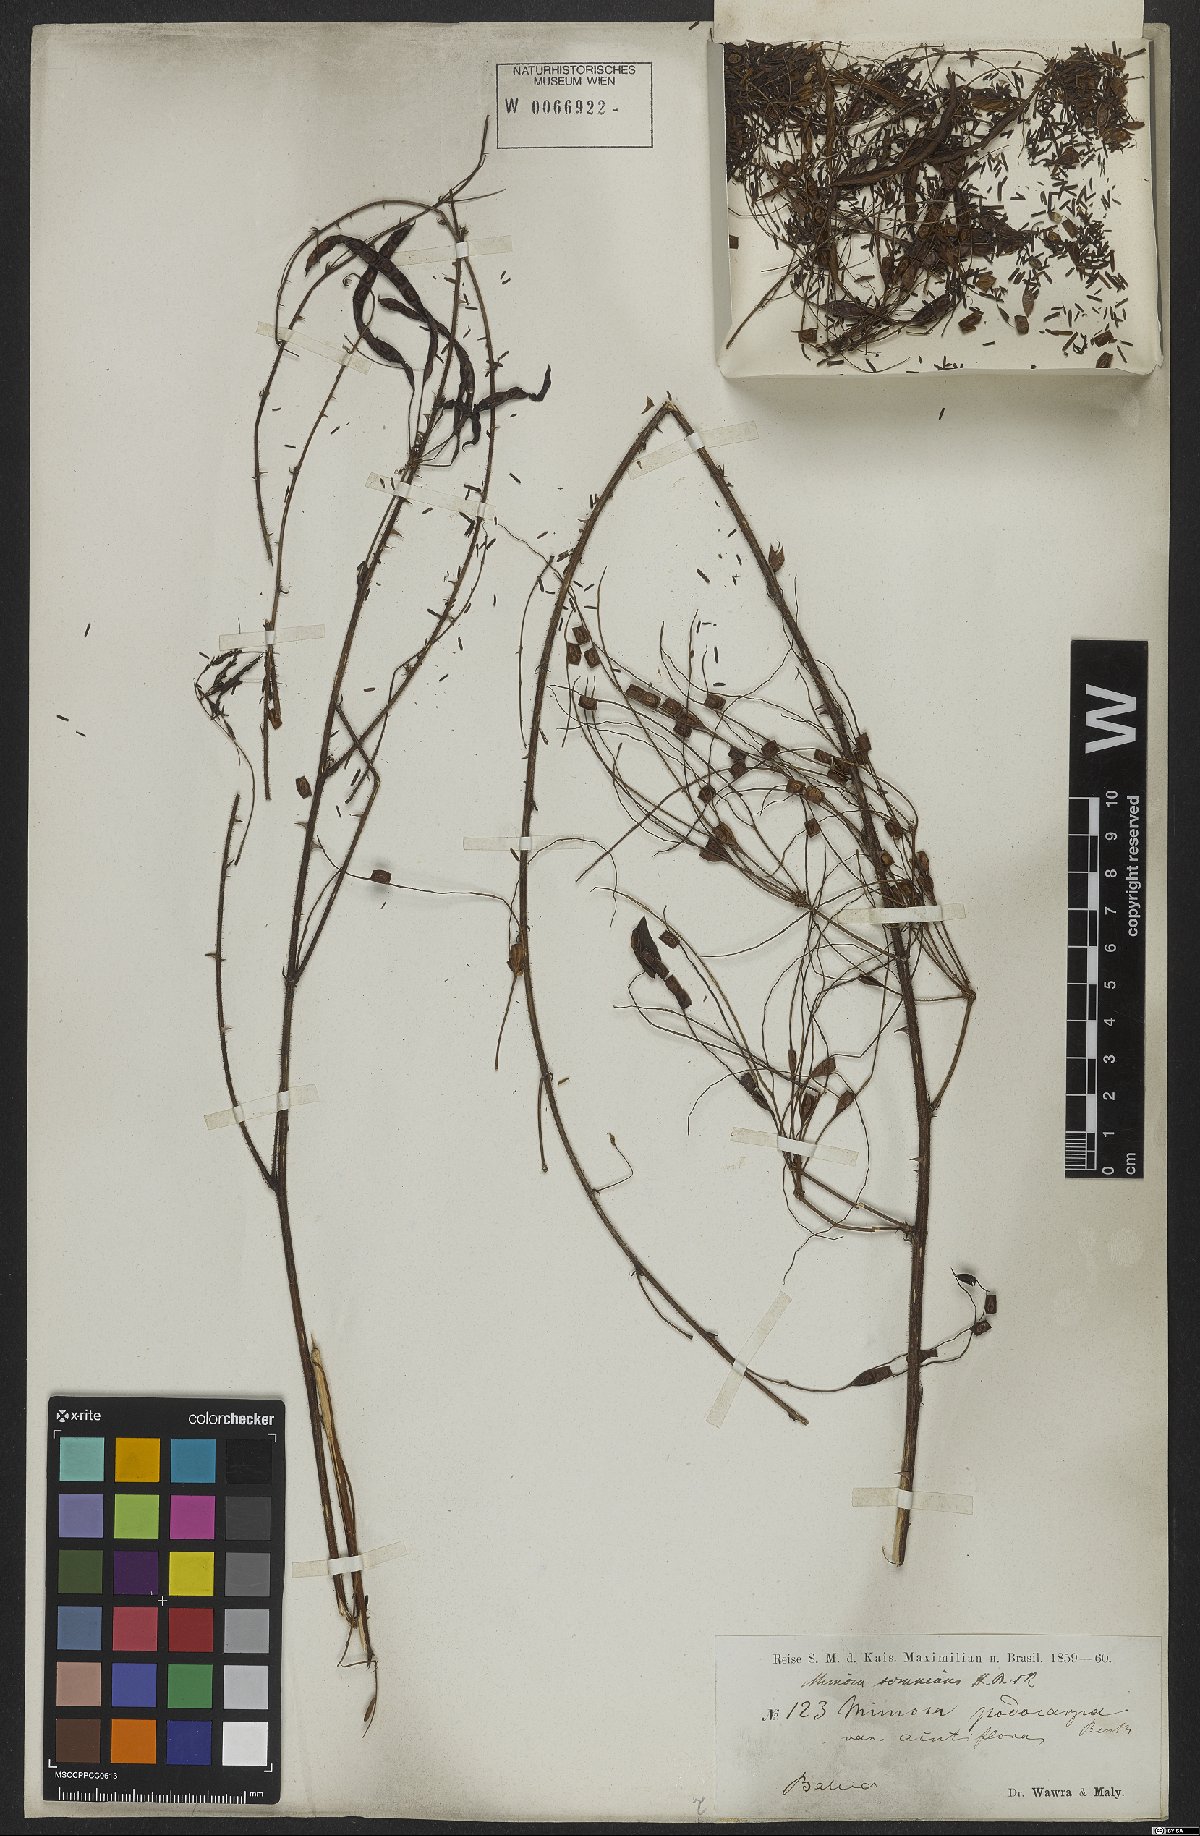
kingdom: Plantae
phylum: Tracheophyta
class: Magnoliopsida
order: Fabales
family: Fabaceae
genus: Mimosa
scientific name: Mimosa somnians
